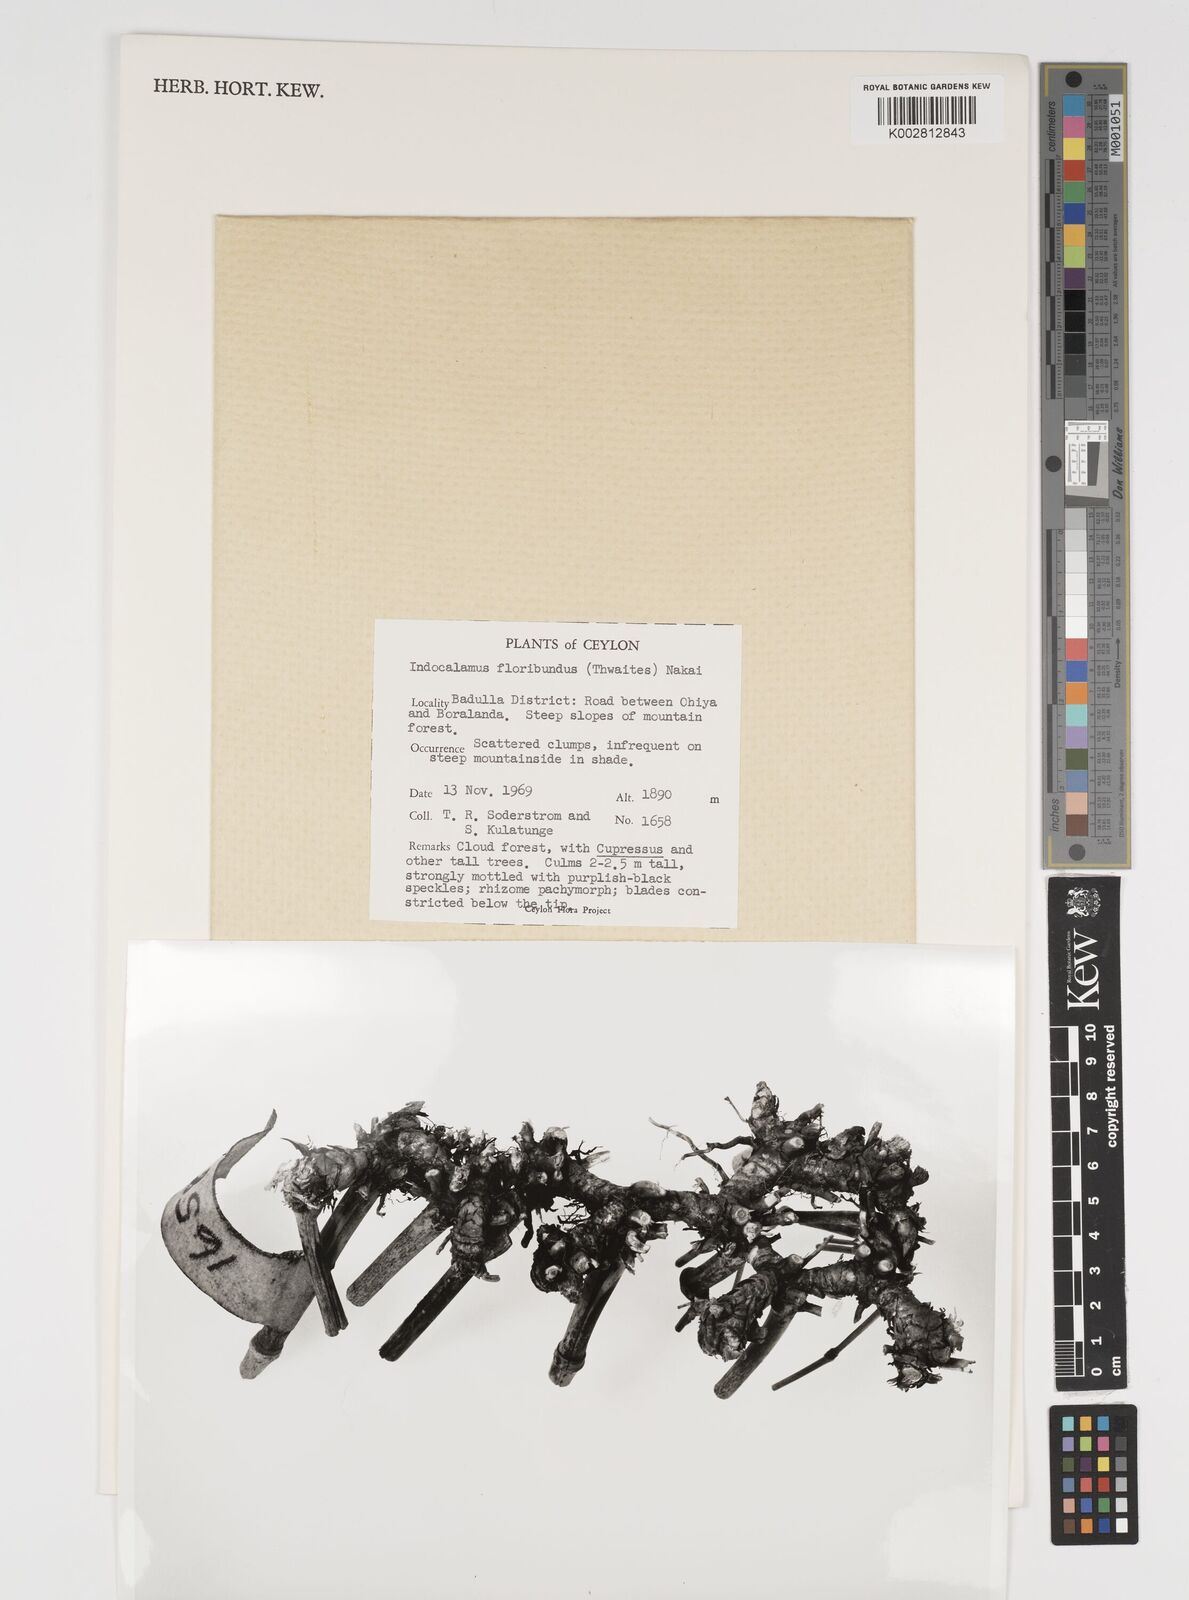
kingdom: Plantae
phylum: Tracheophyta
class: Liliopsida
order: Poales
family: Poaceae
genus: Kuruna
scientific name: Kuruna floribunda
